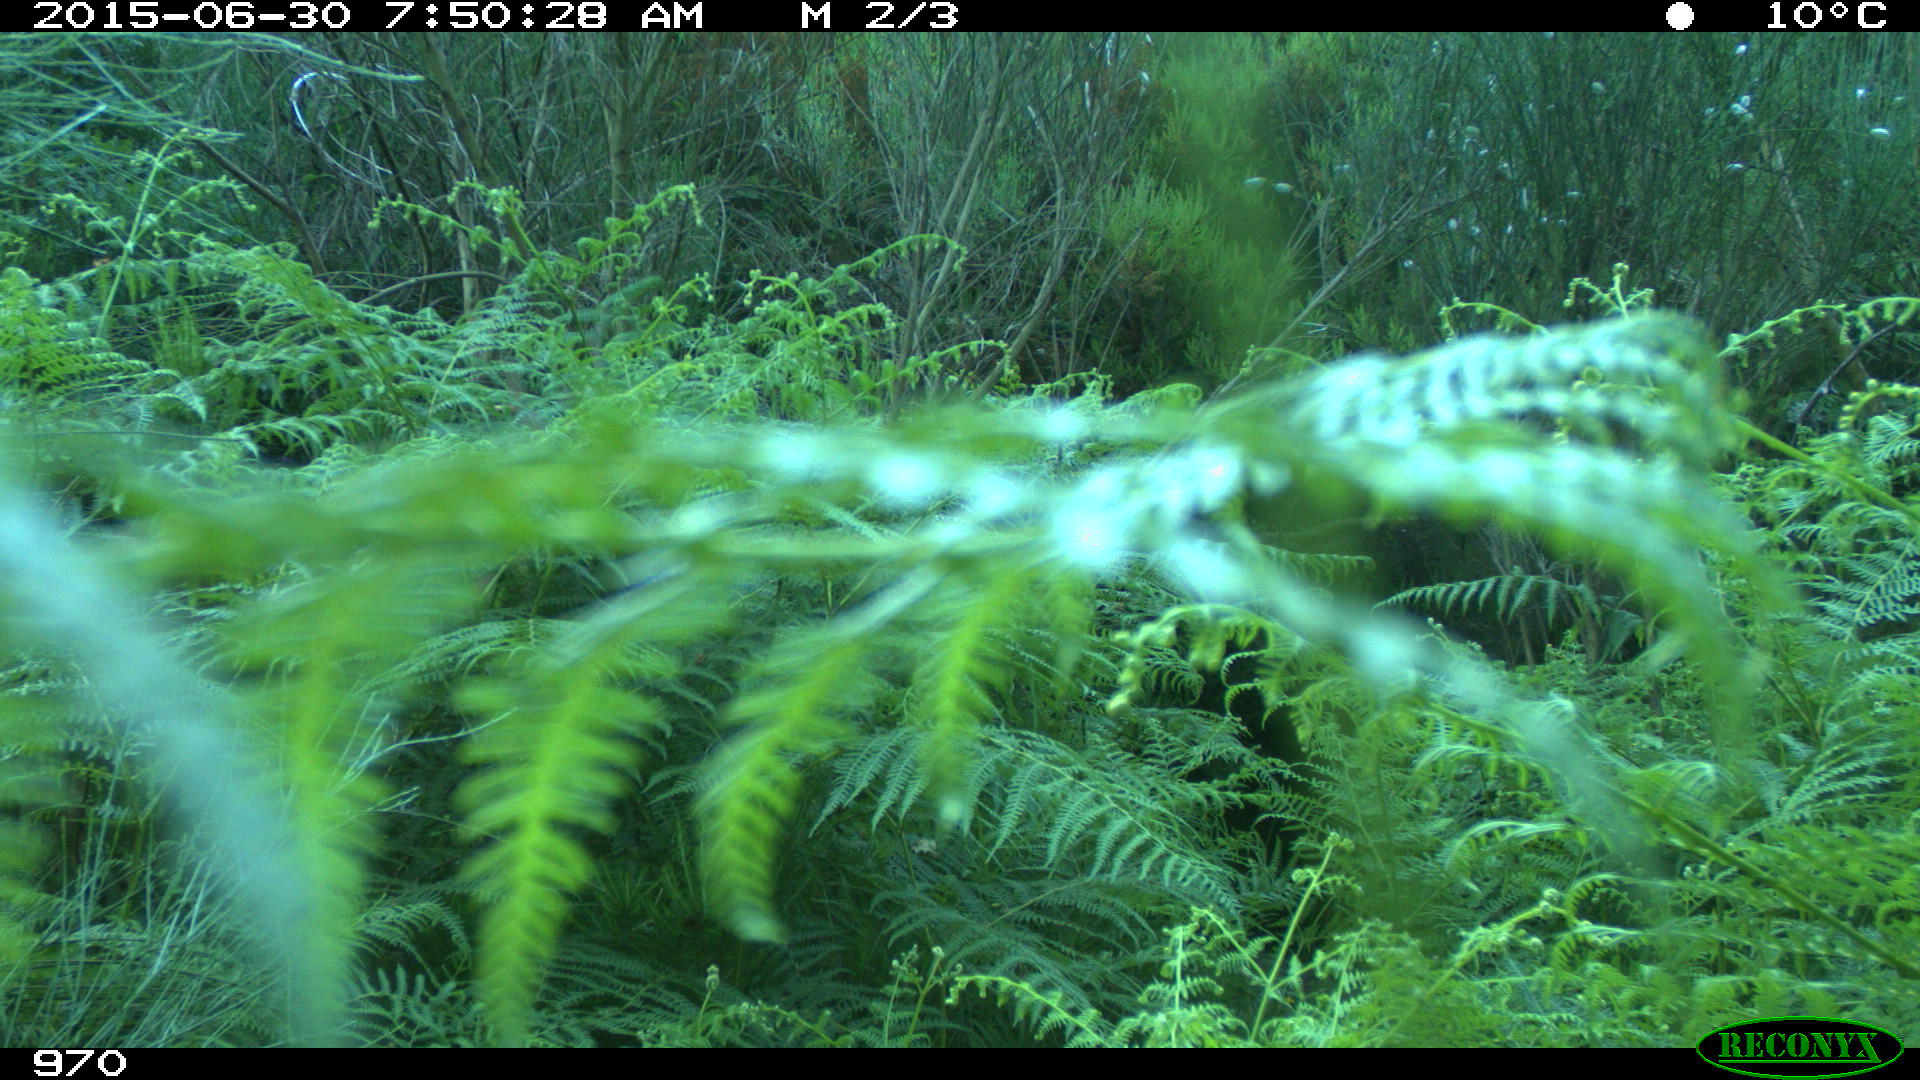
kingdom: Animalia
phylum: Chordata
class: Mammalia
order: Artiodactyla
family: Cervidae
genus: Capreolus
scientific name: Capreolus capreolus
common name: Western roe deer
